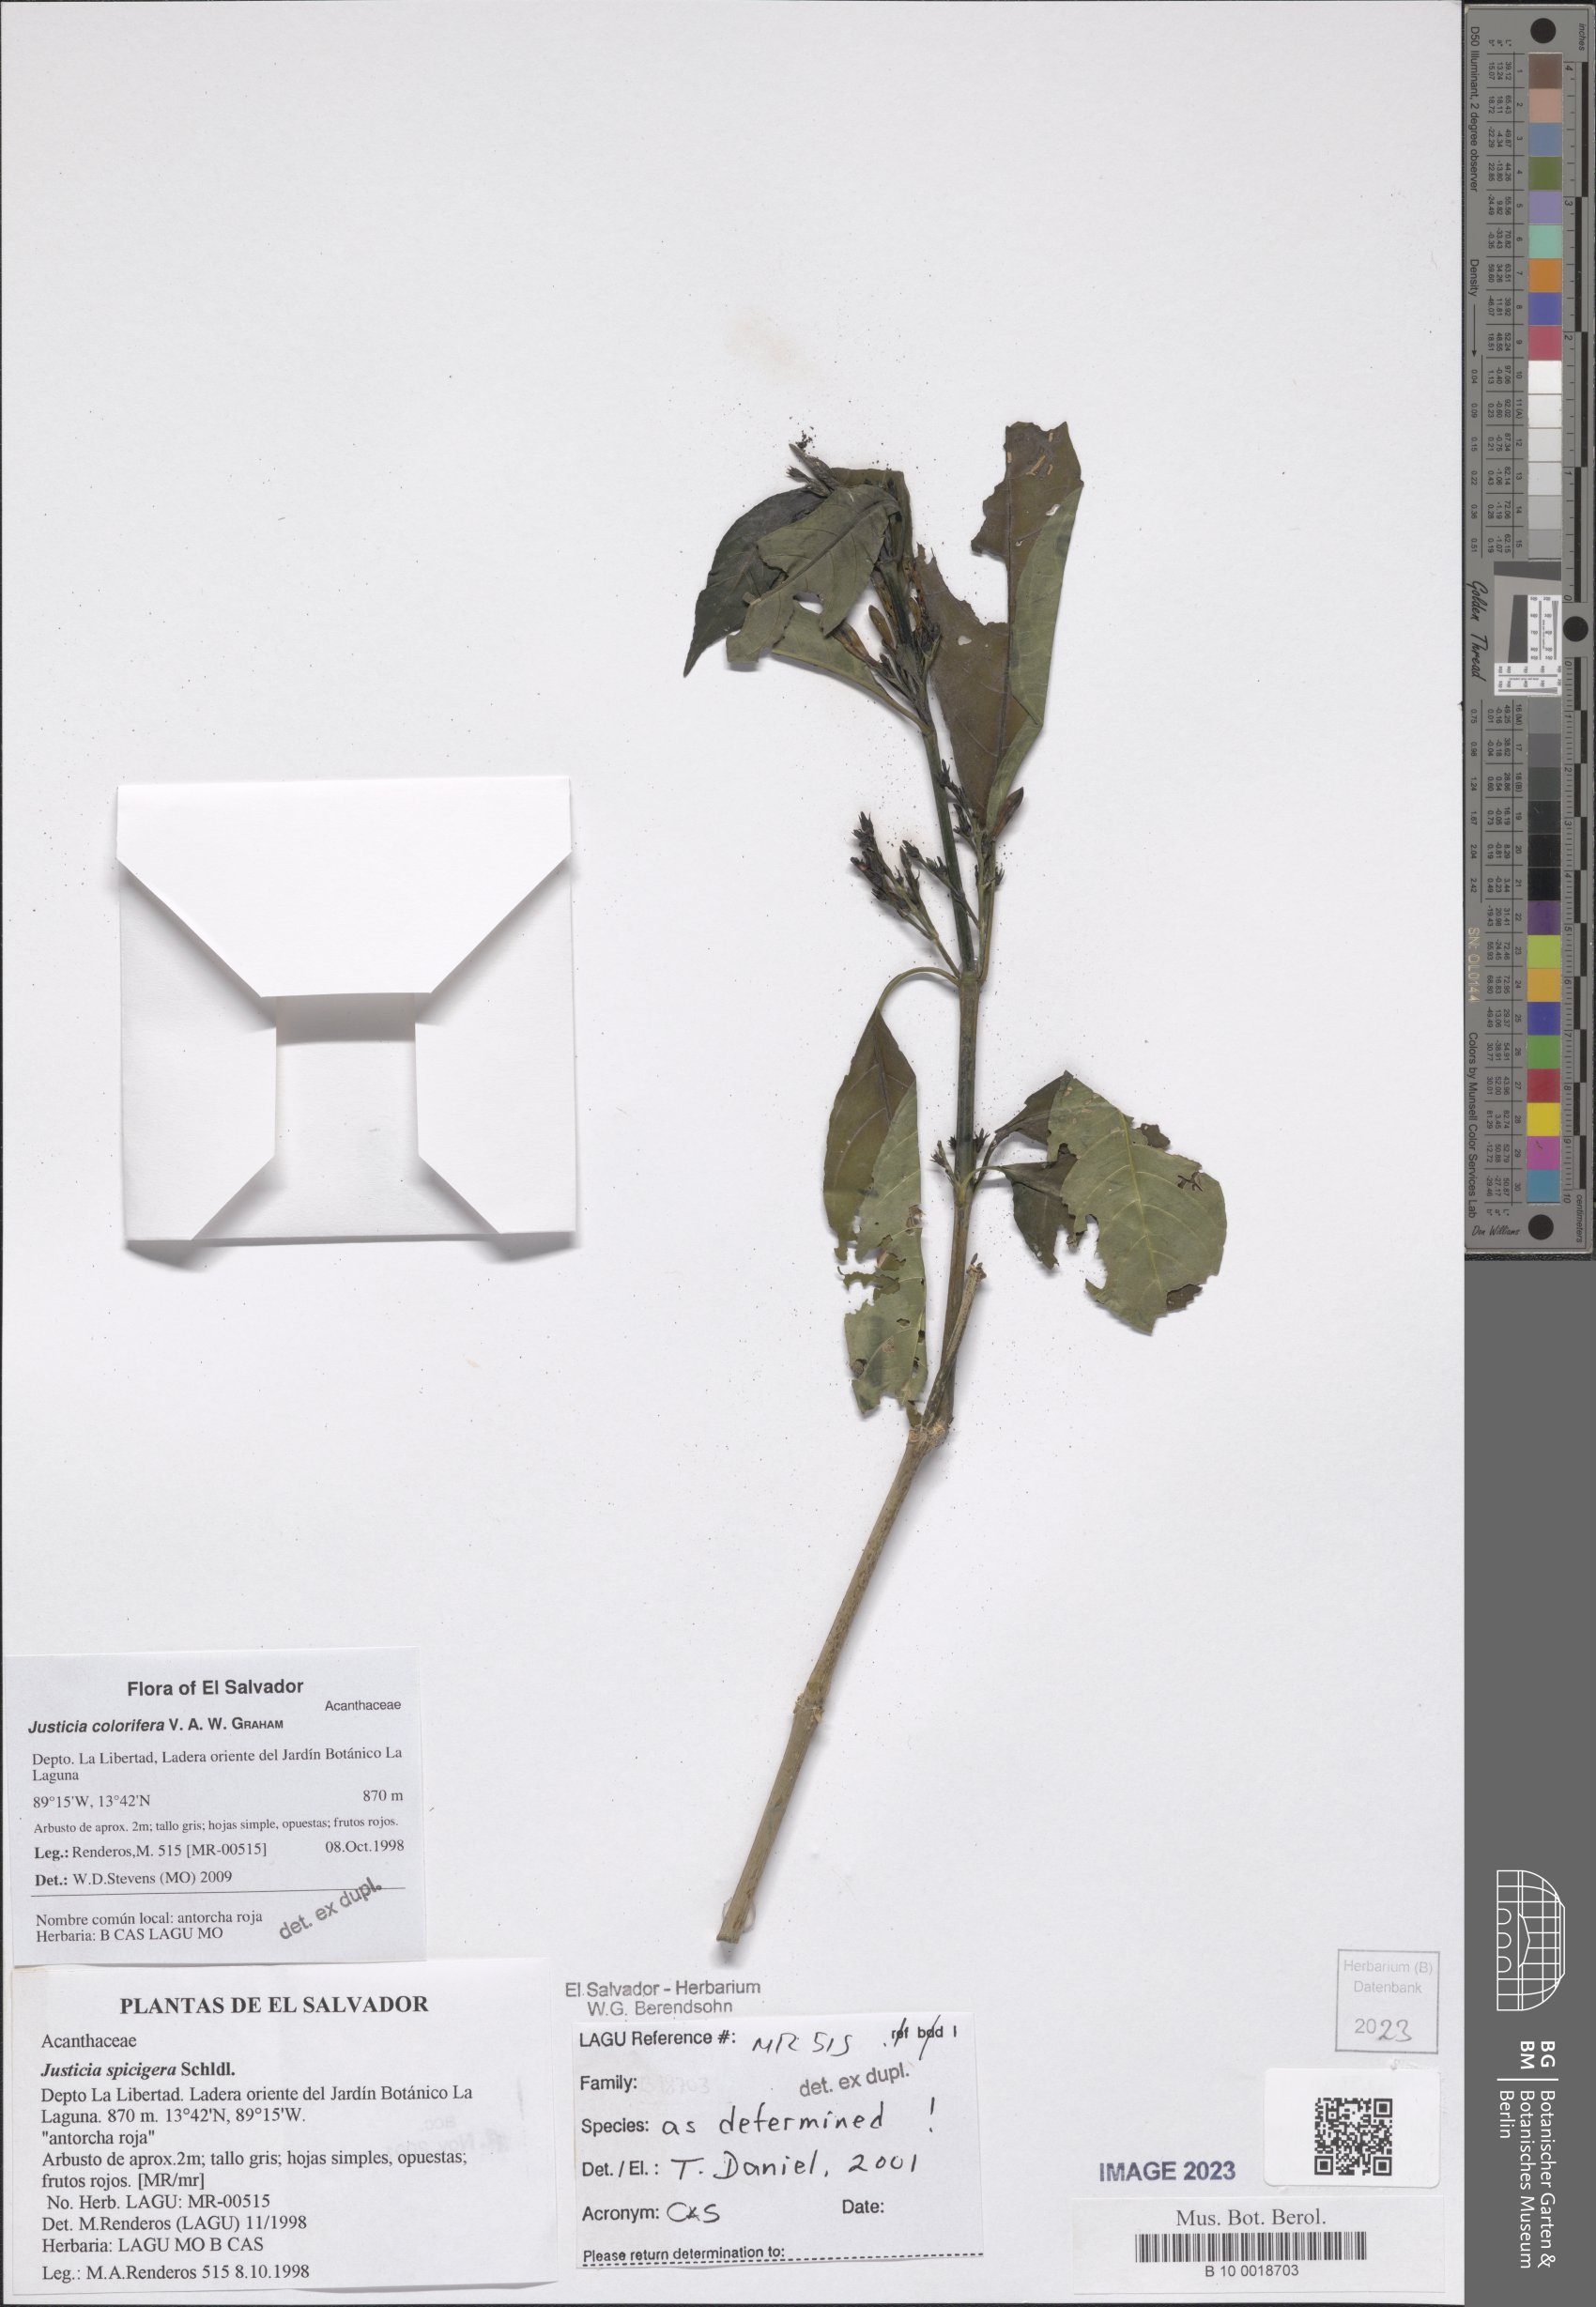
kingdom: Plantae
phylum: Tracheophyta
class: Magnoliopsida
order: Lamiales
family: Acanthaceae
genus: Justicia
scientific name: Justicia tinctoriella
